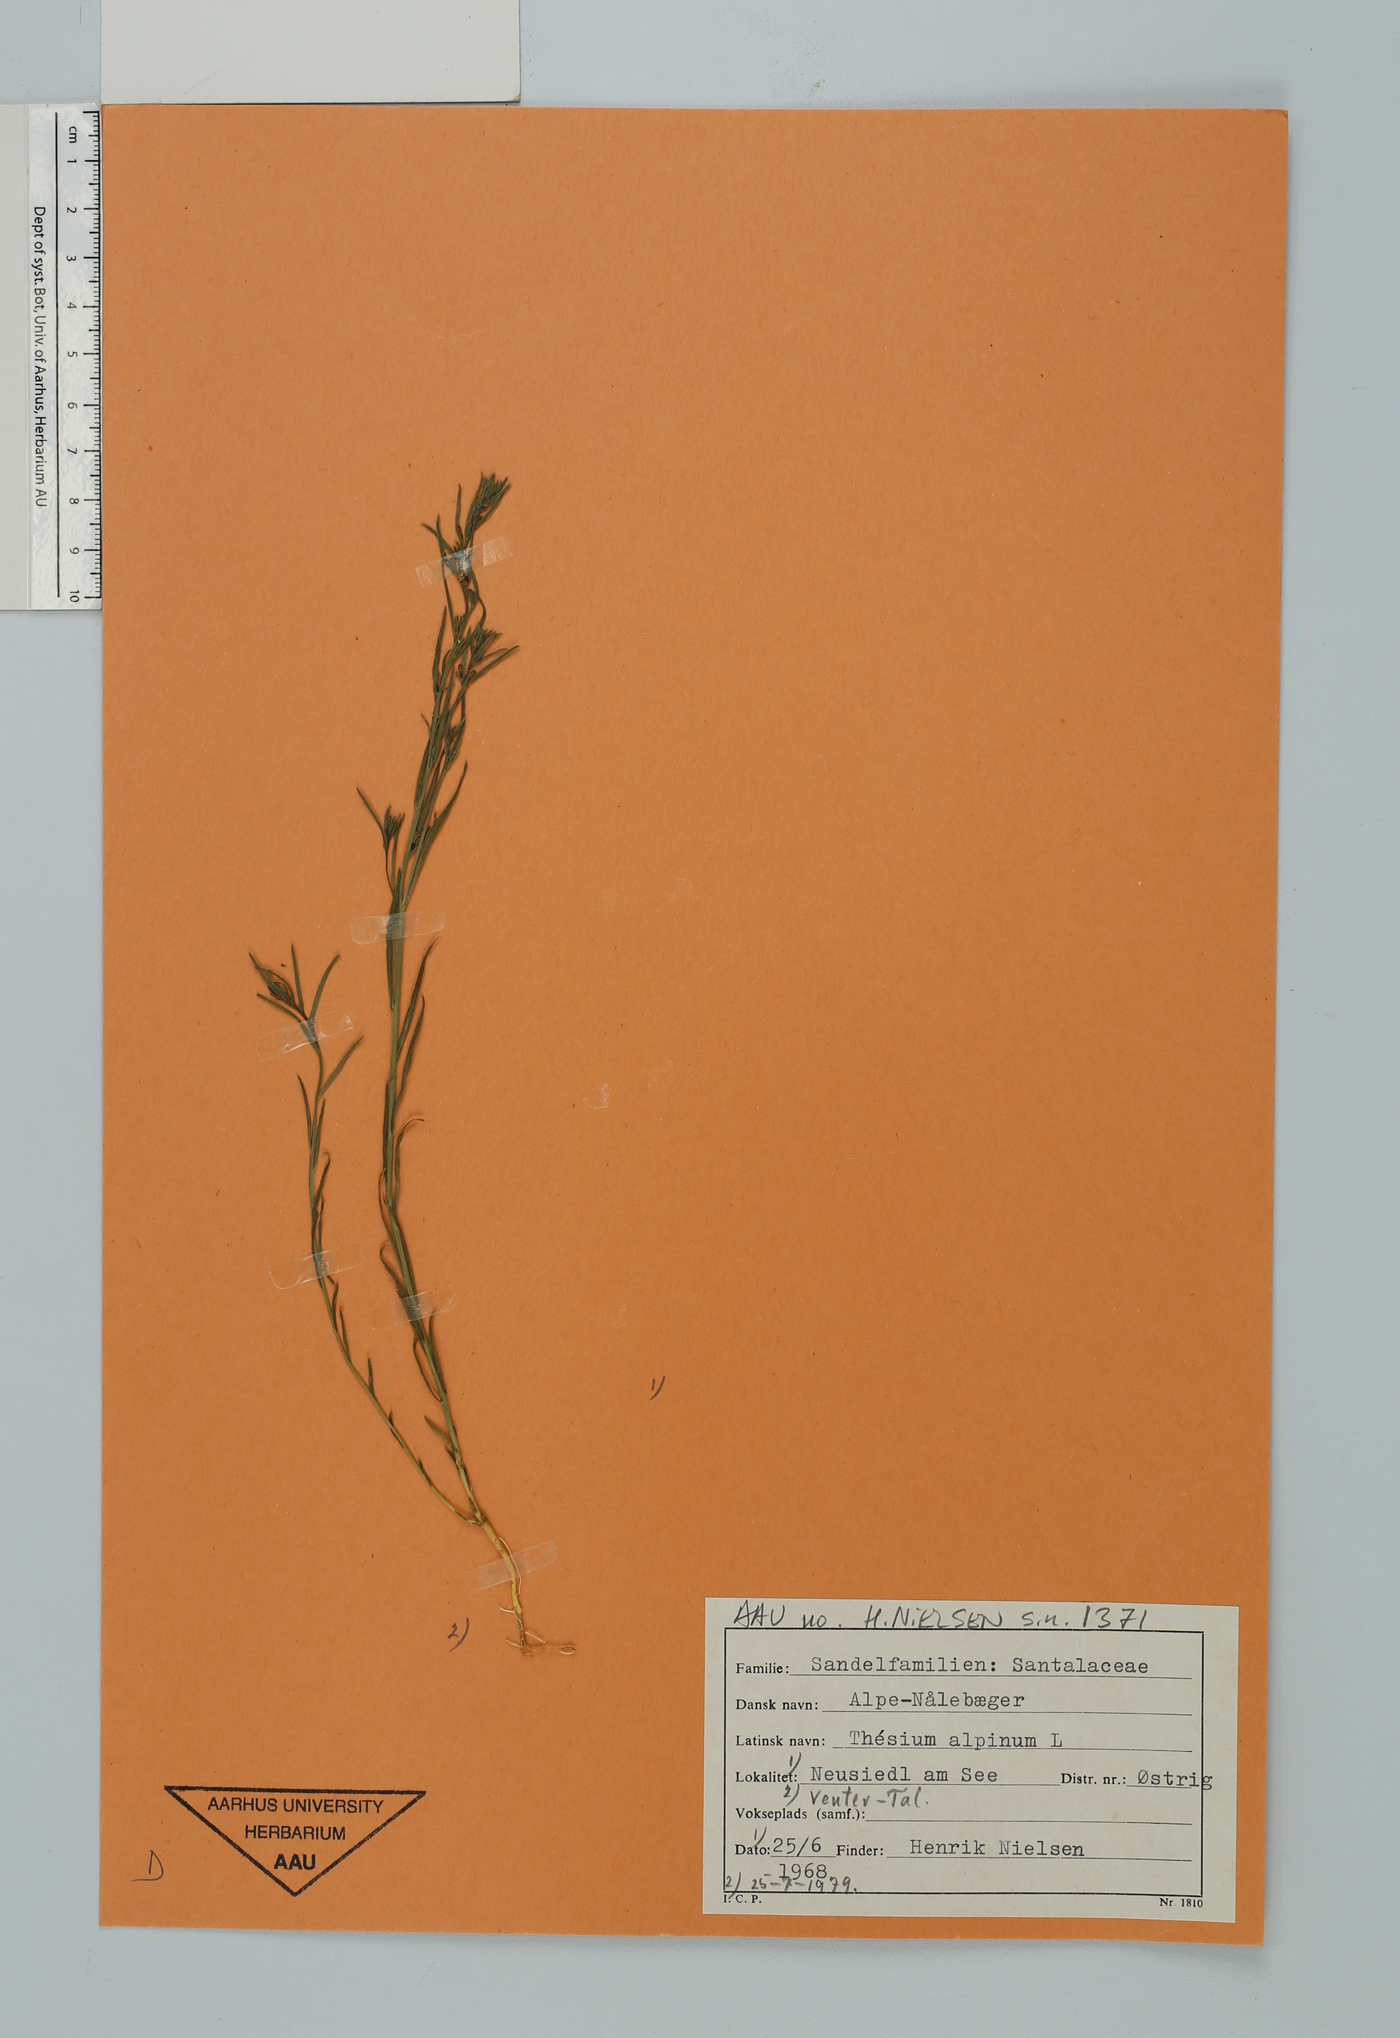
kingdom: Plantae
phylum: Tracheophyta
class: Magnoliopsida
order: Santalales
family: Thesiaceae
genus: Thesium
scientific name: Thesium alpinum
